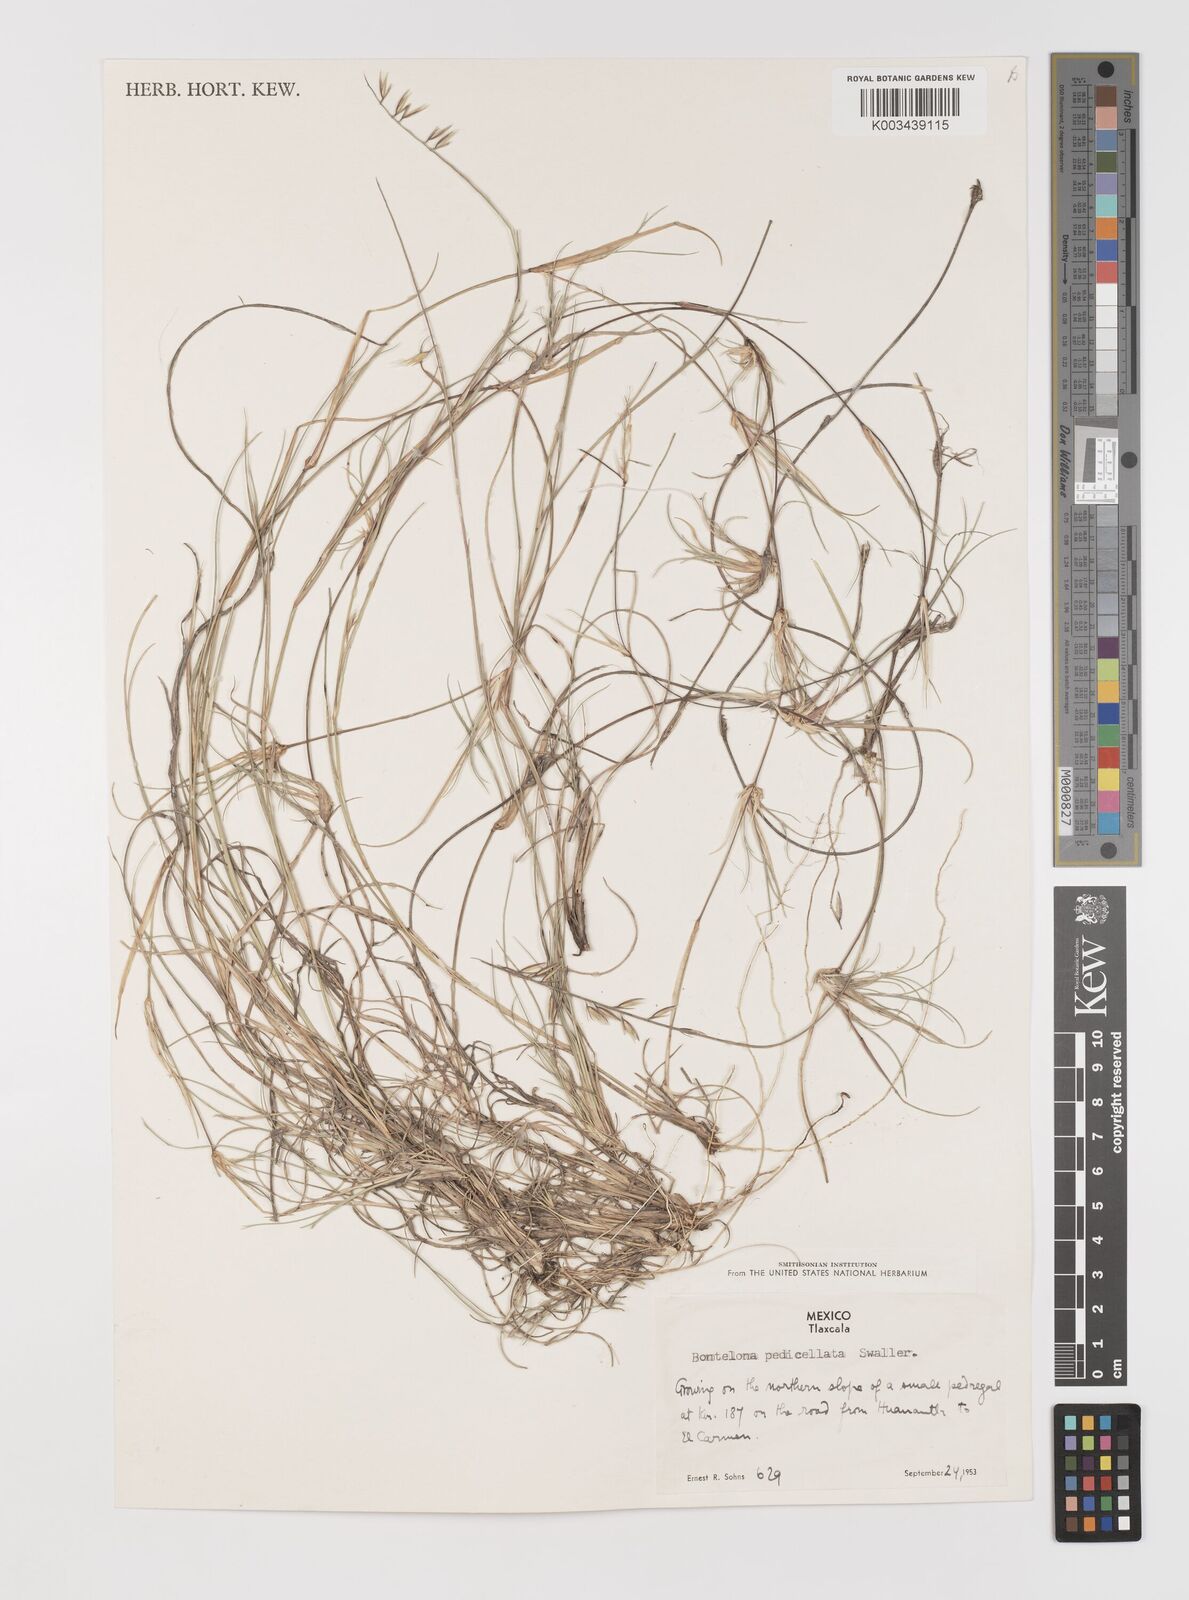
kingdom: Plantae
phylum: Tracheophyta
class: Liliopsida
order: Poales
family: Poaceae
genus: Bouteloua
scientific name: Bouteloua pedicellata
